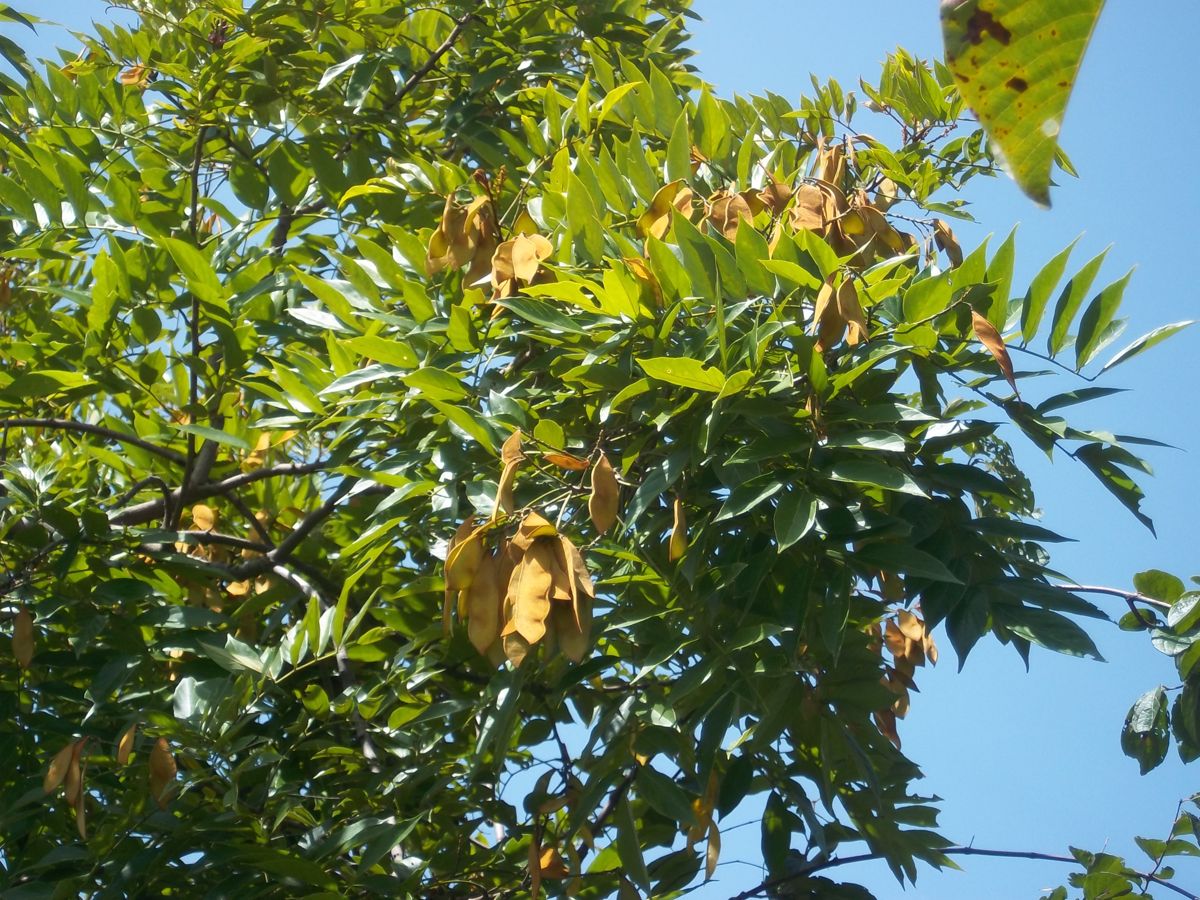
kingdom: Plantae
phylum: Tracheophyta
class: Magnoliopsida
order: Fabales
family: Fabaceae
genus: Lonchocarpus
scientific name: Lonchocarpus santarosanus
